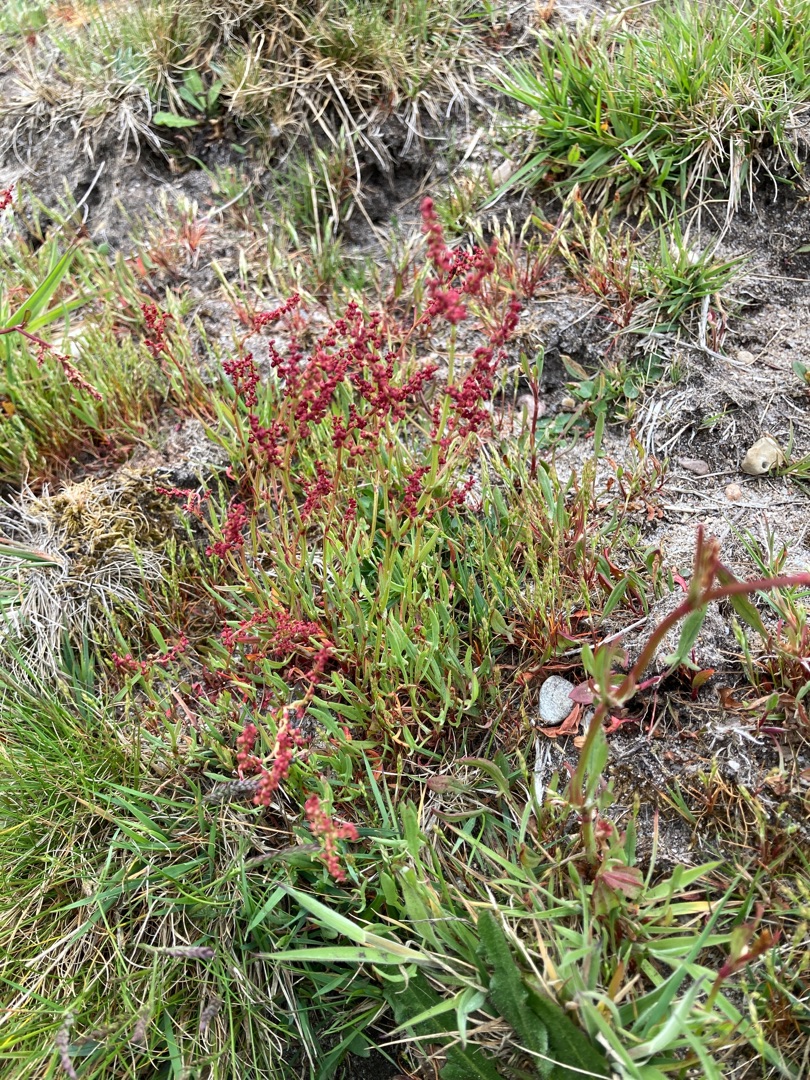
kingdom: Plantae
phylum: Tracheophyta
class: Magnoliopsida
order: Caryophyllales
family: Polygonaceae
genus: Rumex
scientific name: Rumex acetosella
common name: Rødknæ
